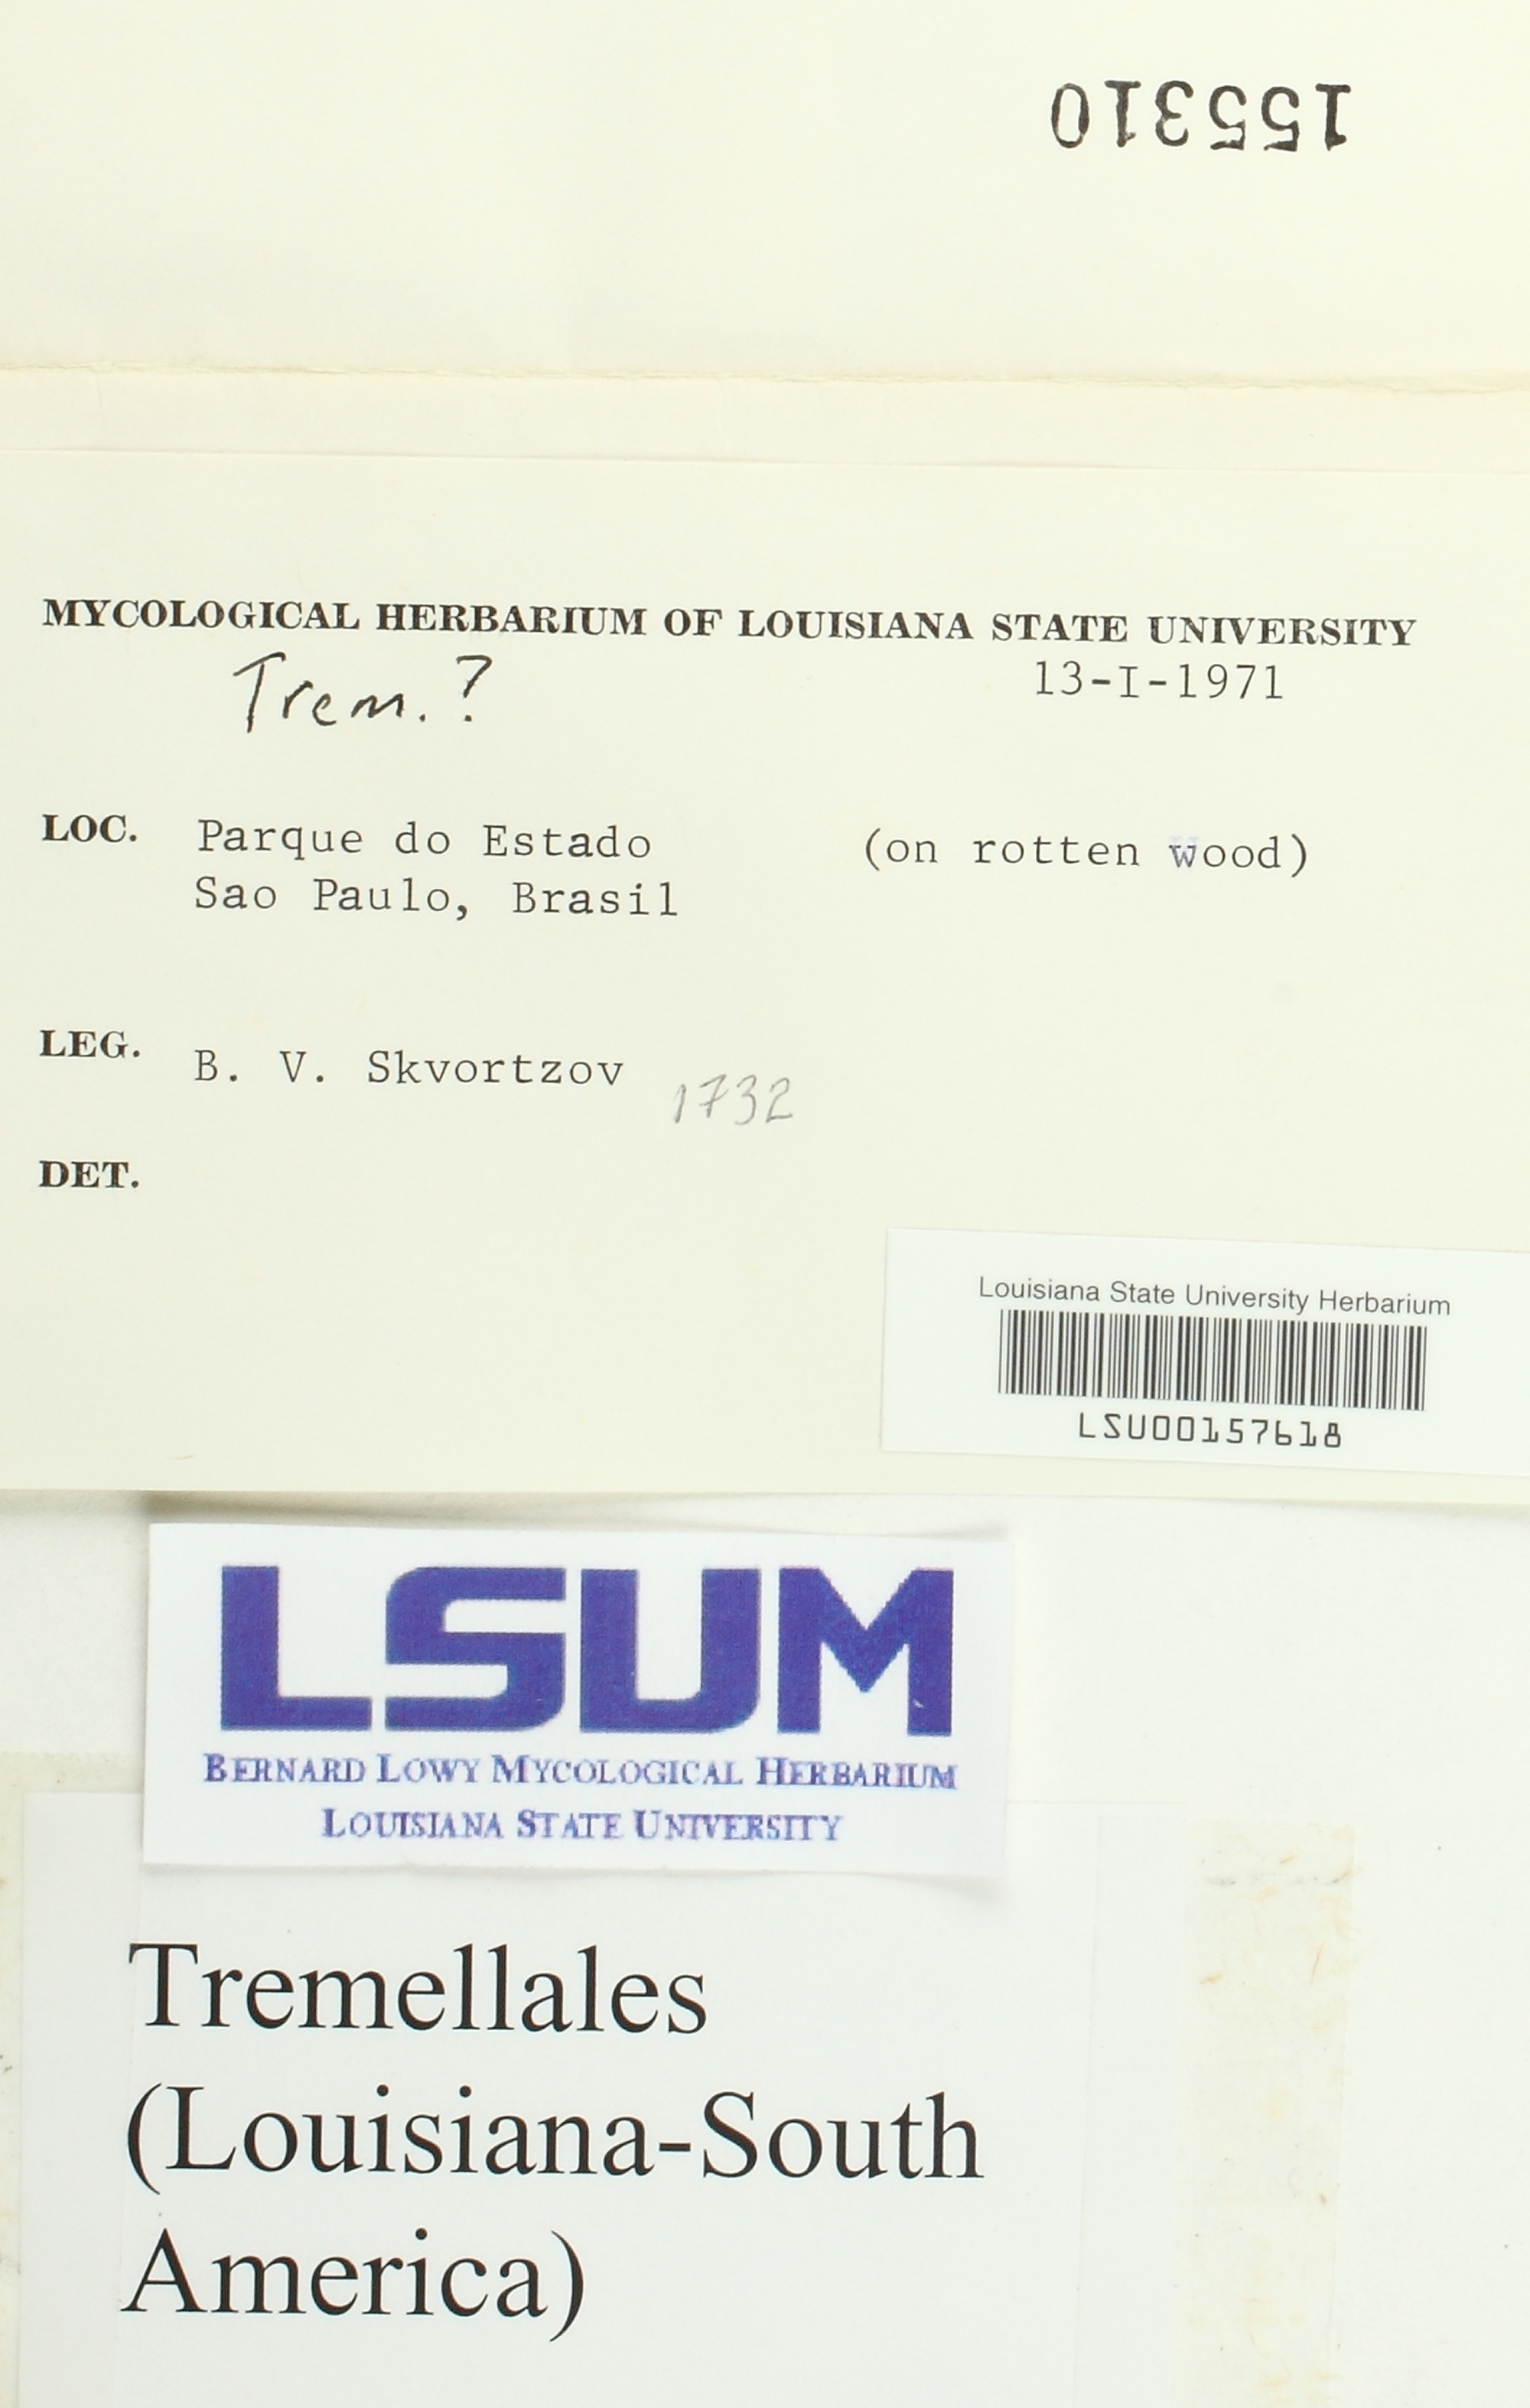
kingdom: Fungi
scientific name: Fungi
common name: Fungi
